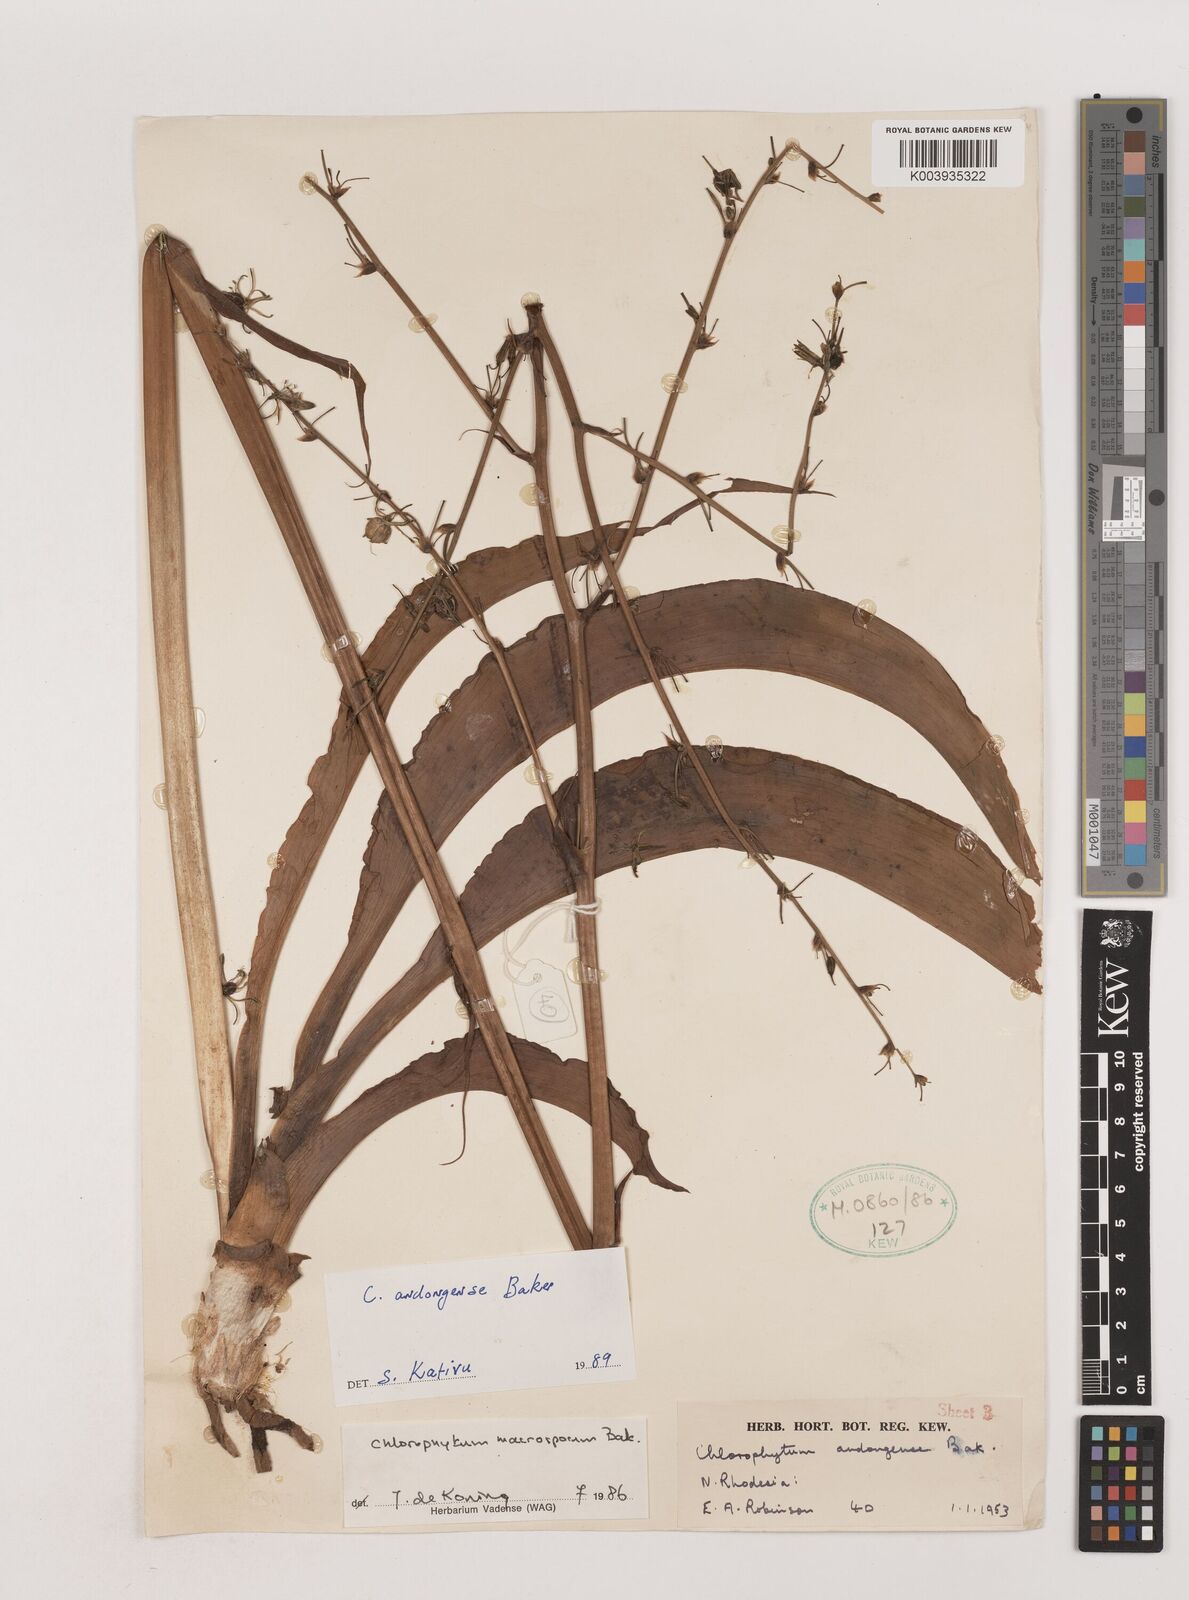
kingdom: Plantae
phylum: Tracheophyta
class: Liliopsida
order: Asparagales
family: Asparagaceae
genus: Chlorophytum
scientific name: Chlorophytum andongense
